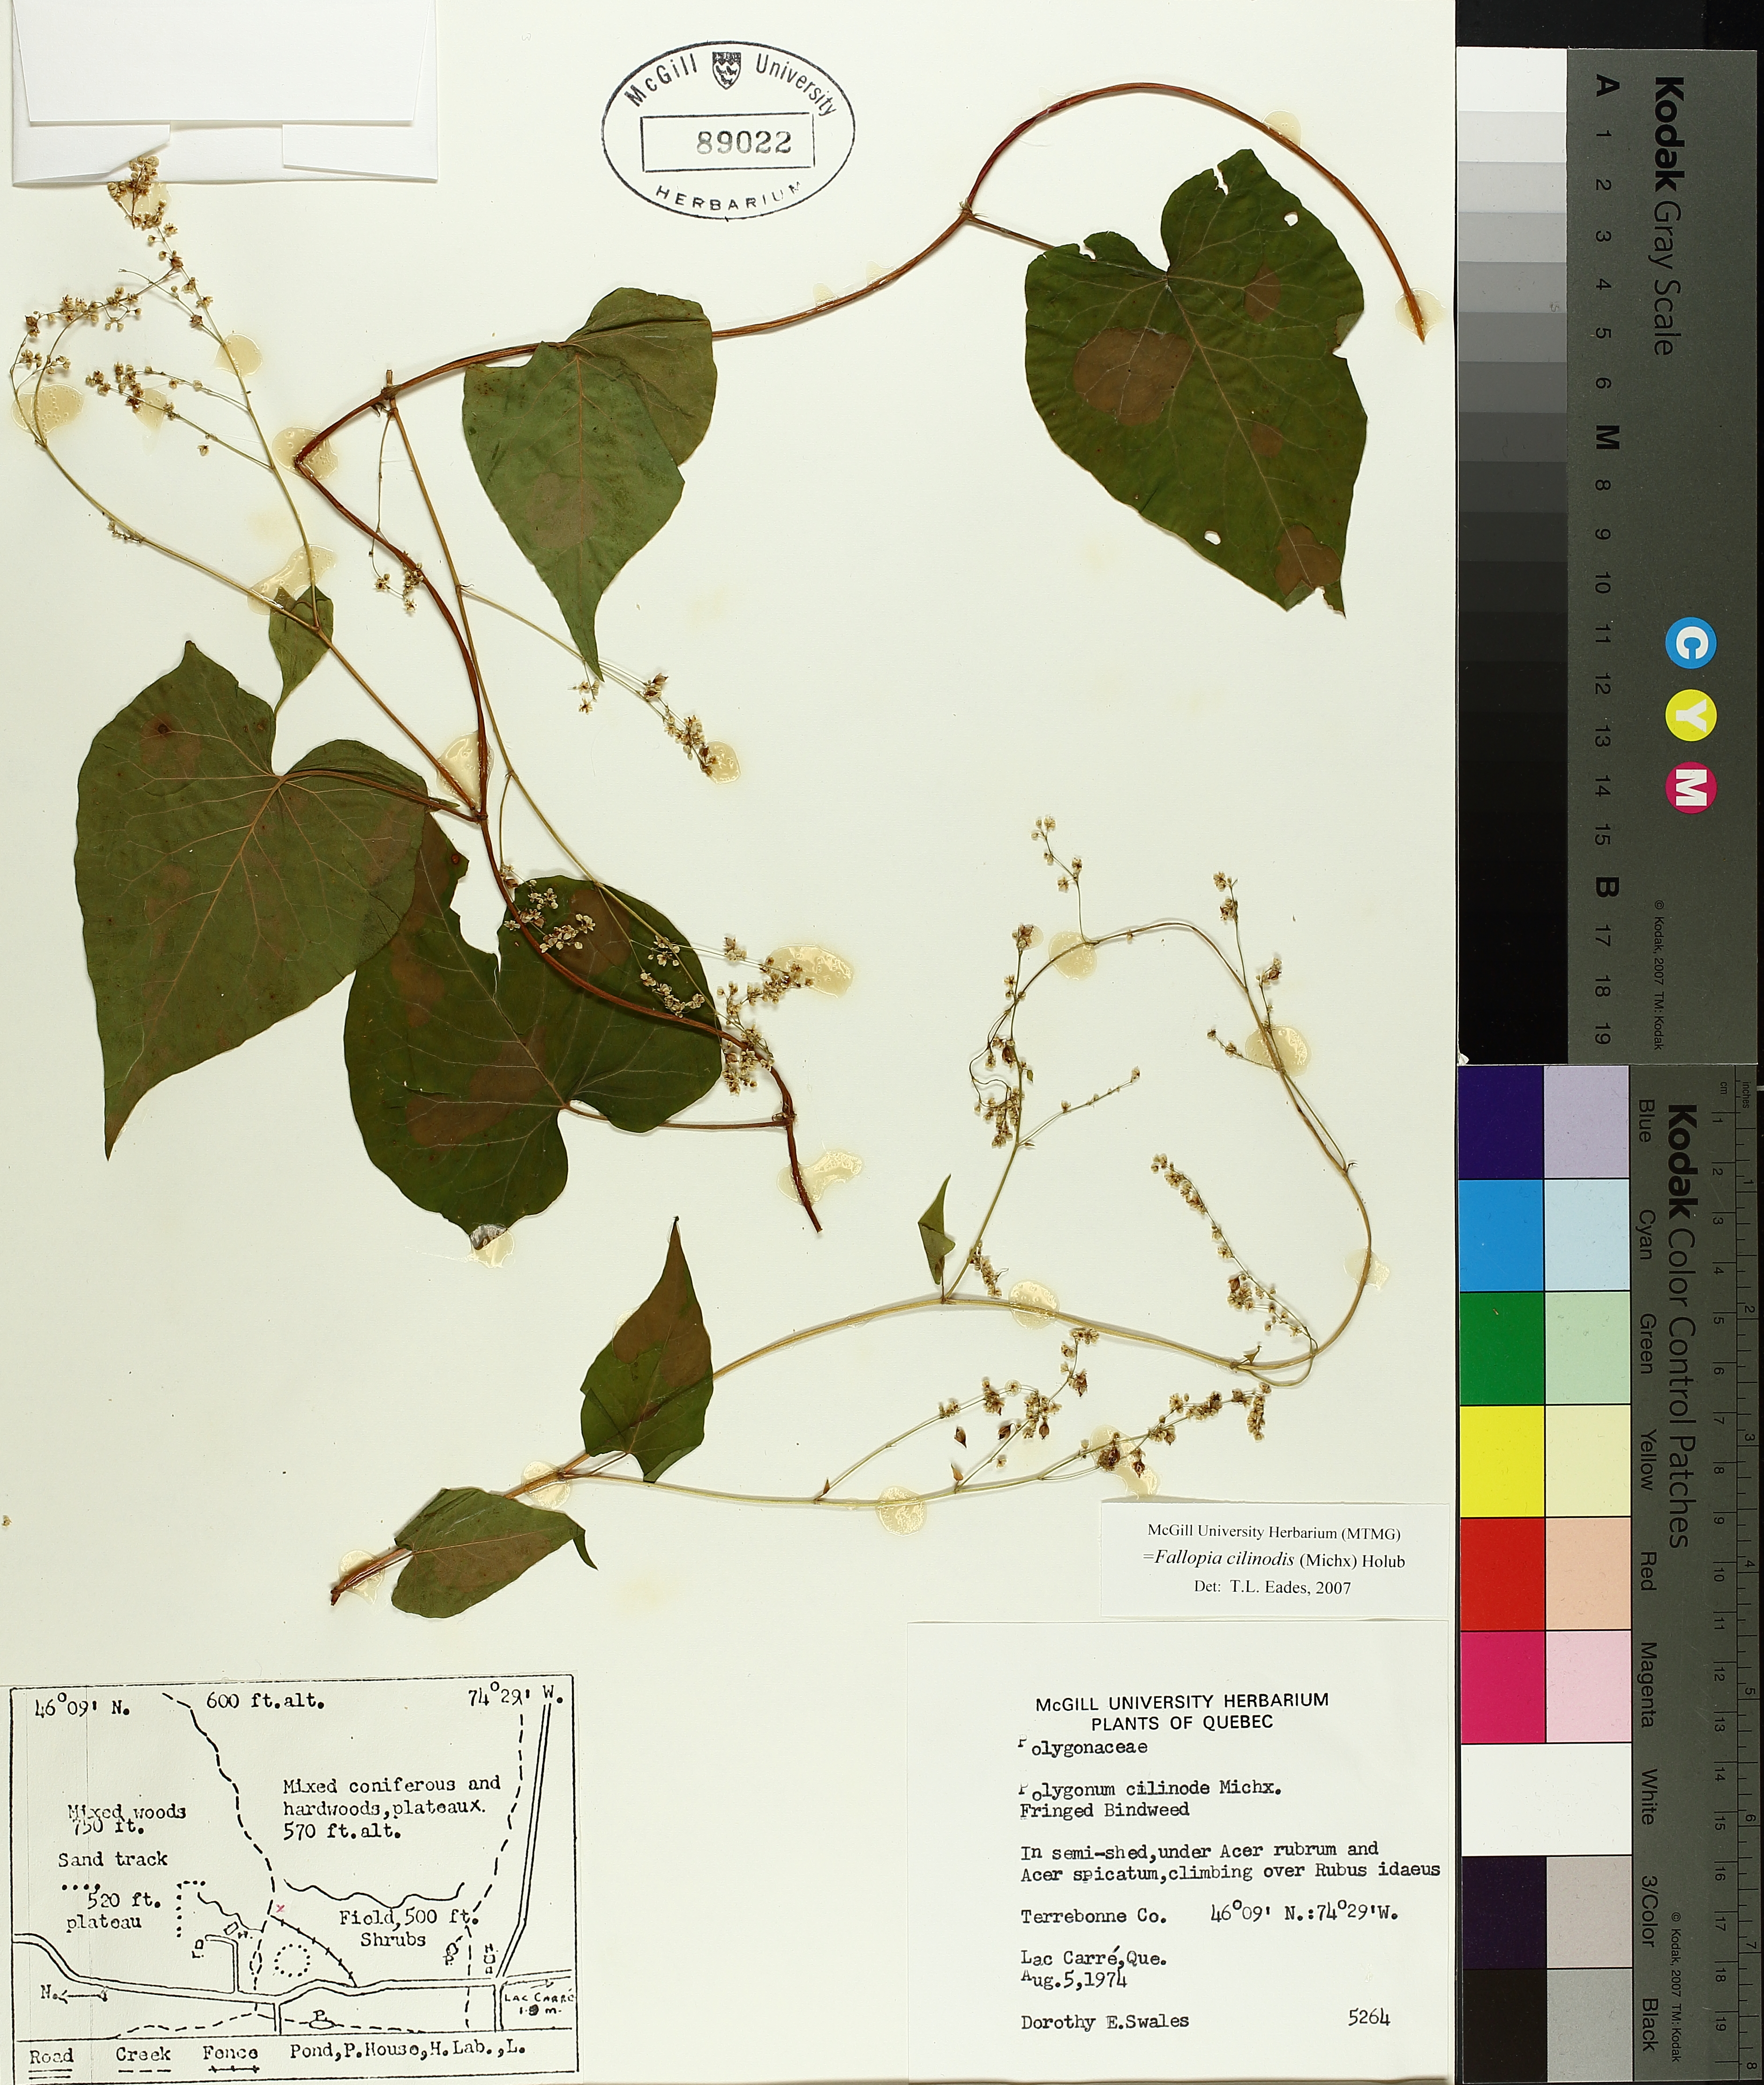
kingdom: Plantae
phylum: Tracheophyta
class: Magnoliopsida
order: Caryophyllales
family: Polygonaceae
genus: Parogonum
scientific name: Parogonum ciliinode
